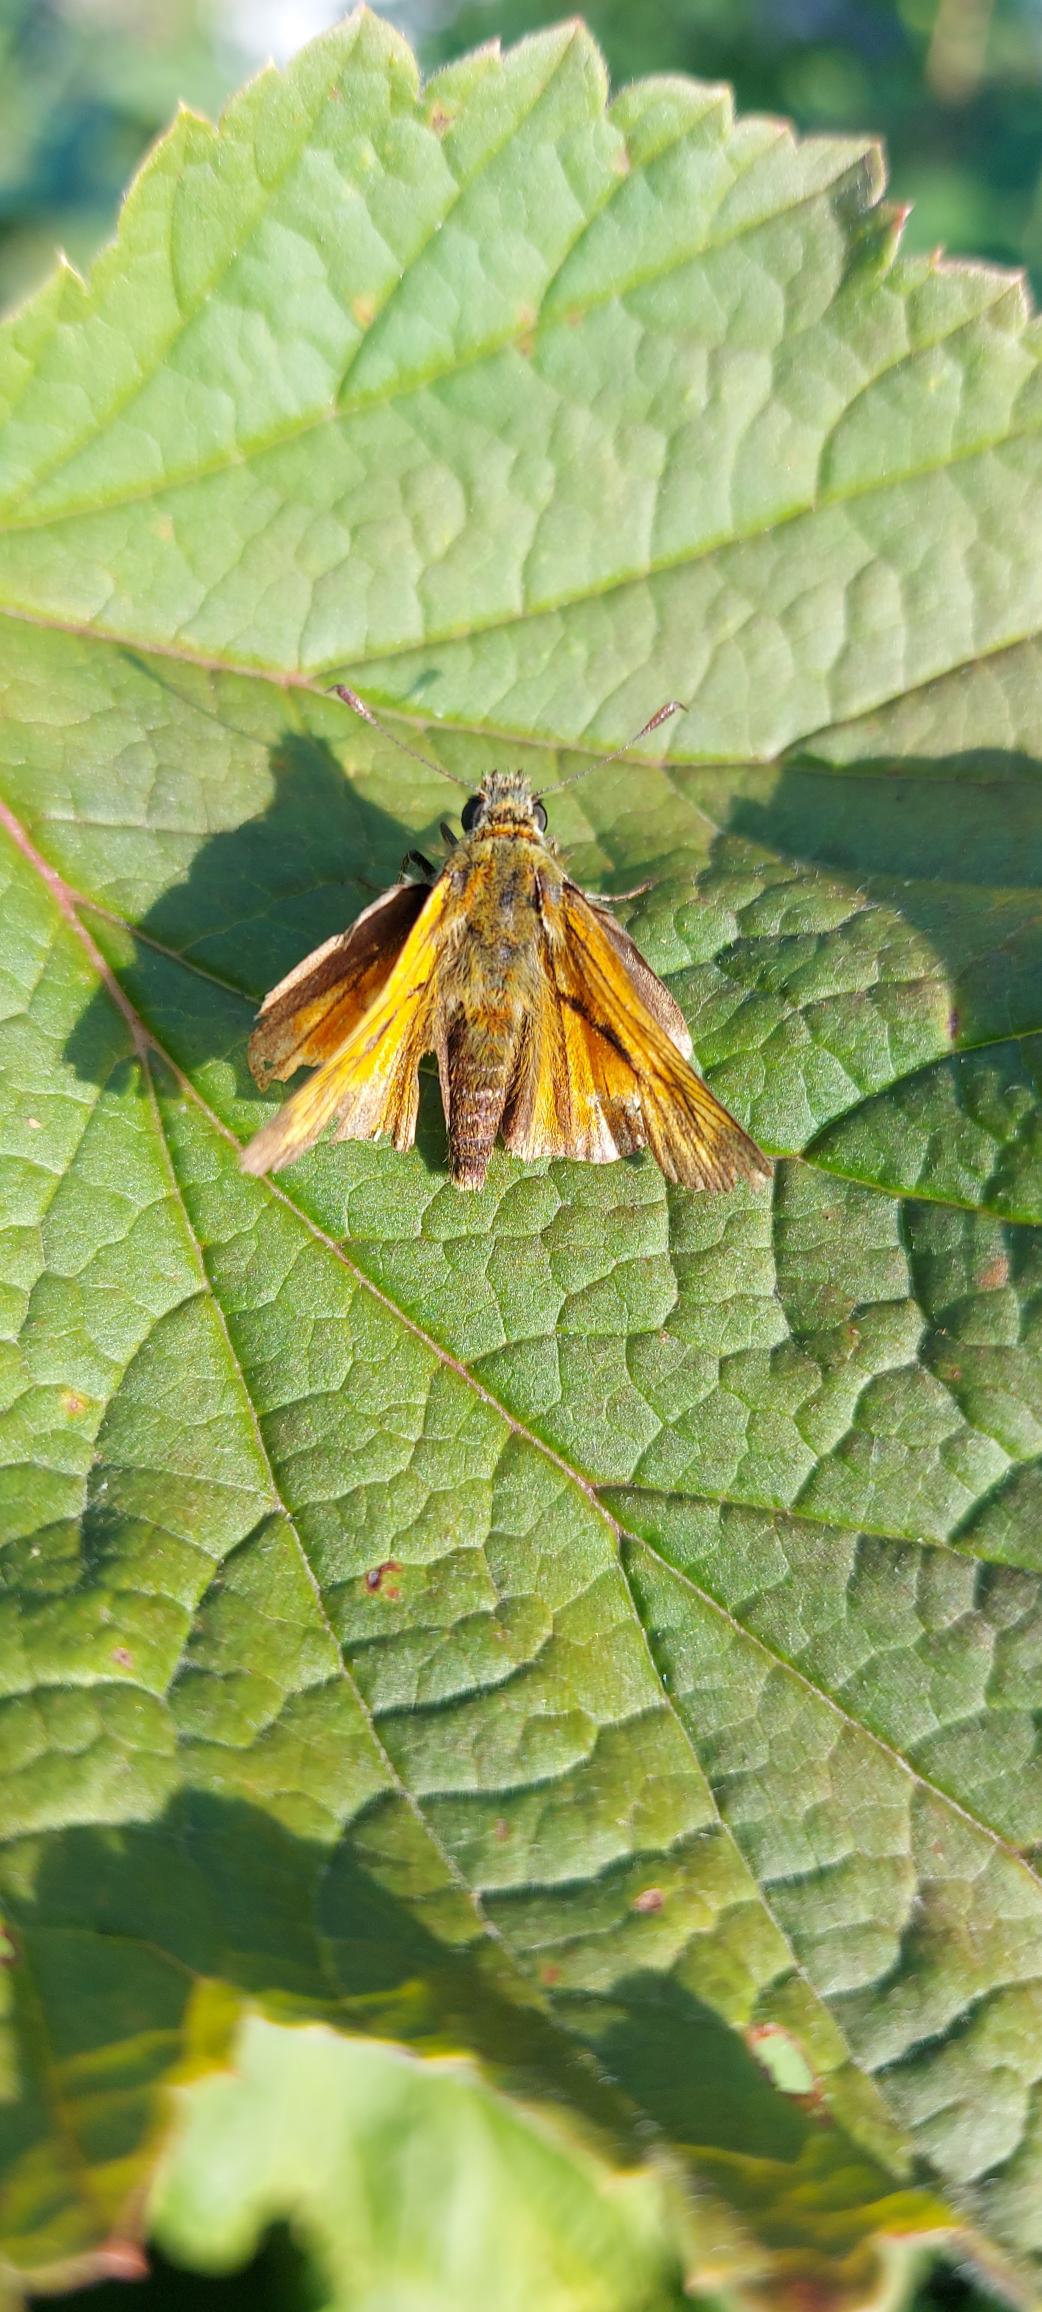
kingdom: Animalia
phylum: Arthropoda
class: Insecta
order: Lepidoptera
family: Hesperiidae
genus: Ochlodes
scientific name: Ochlodes venata
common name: Stor bredpande
